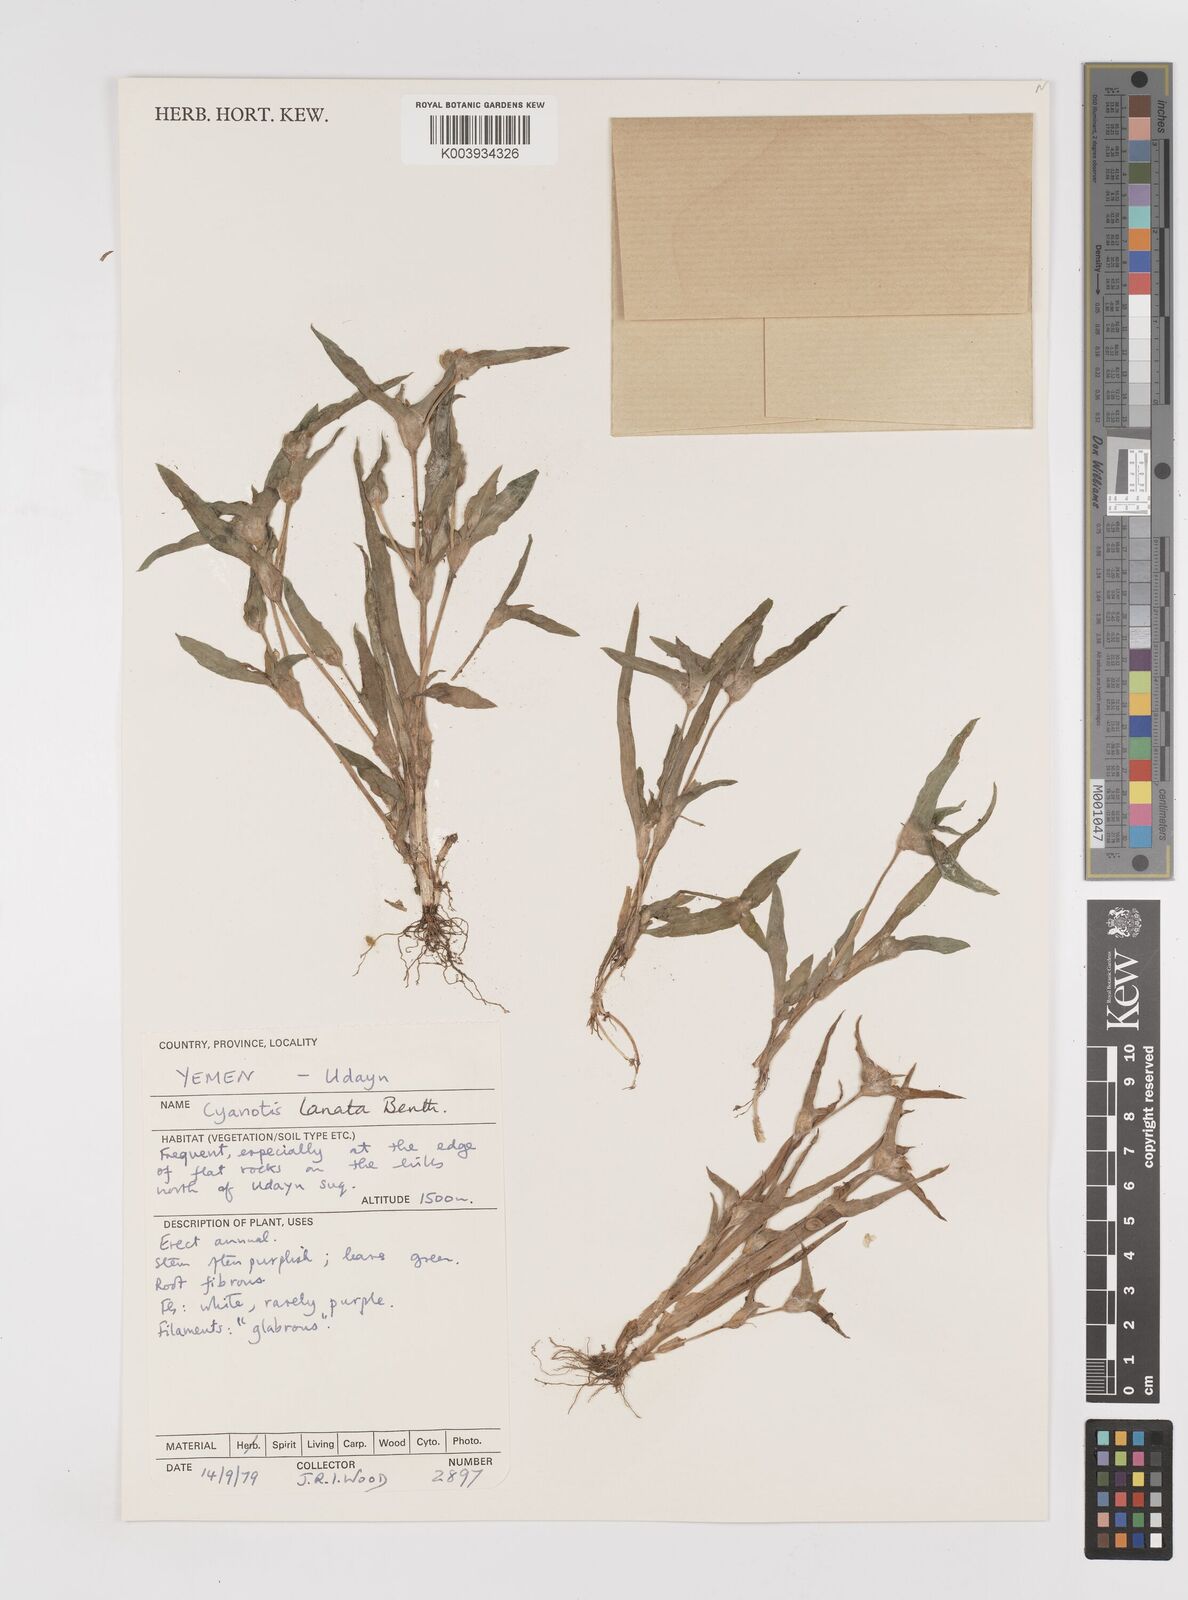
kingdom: Plantae
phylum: Tracheophyta
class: Liliopsida
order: Commelinales
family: Commelinaceae
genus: Cyanotis
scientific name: Cyanotis lanata
